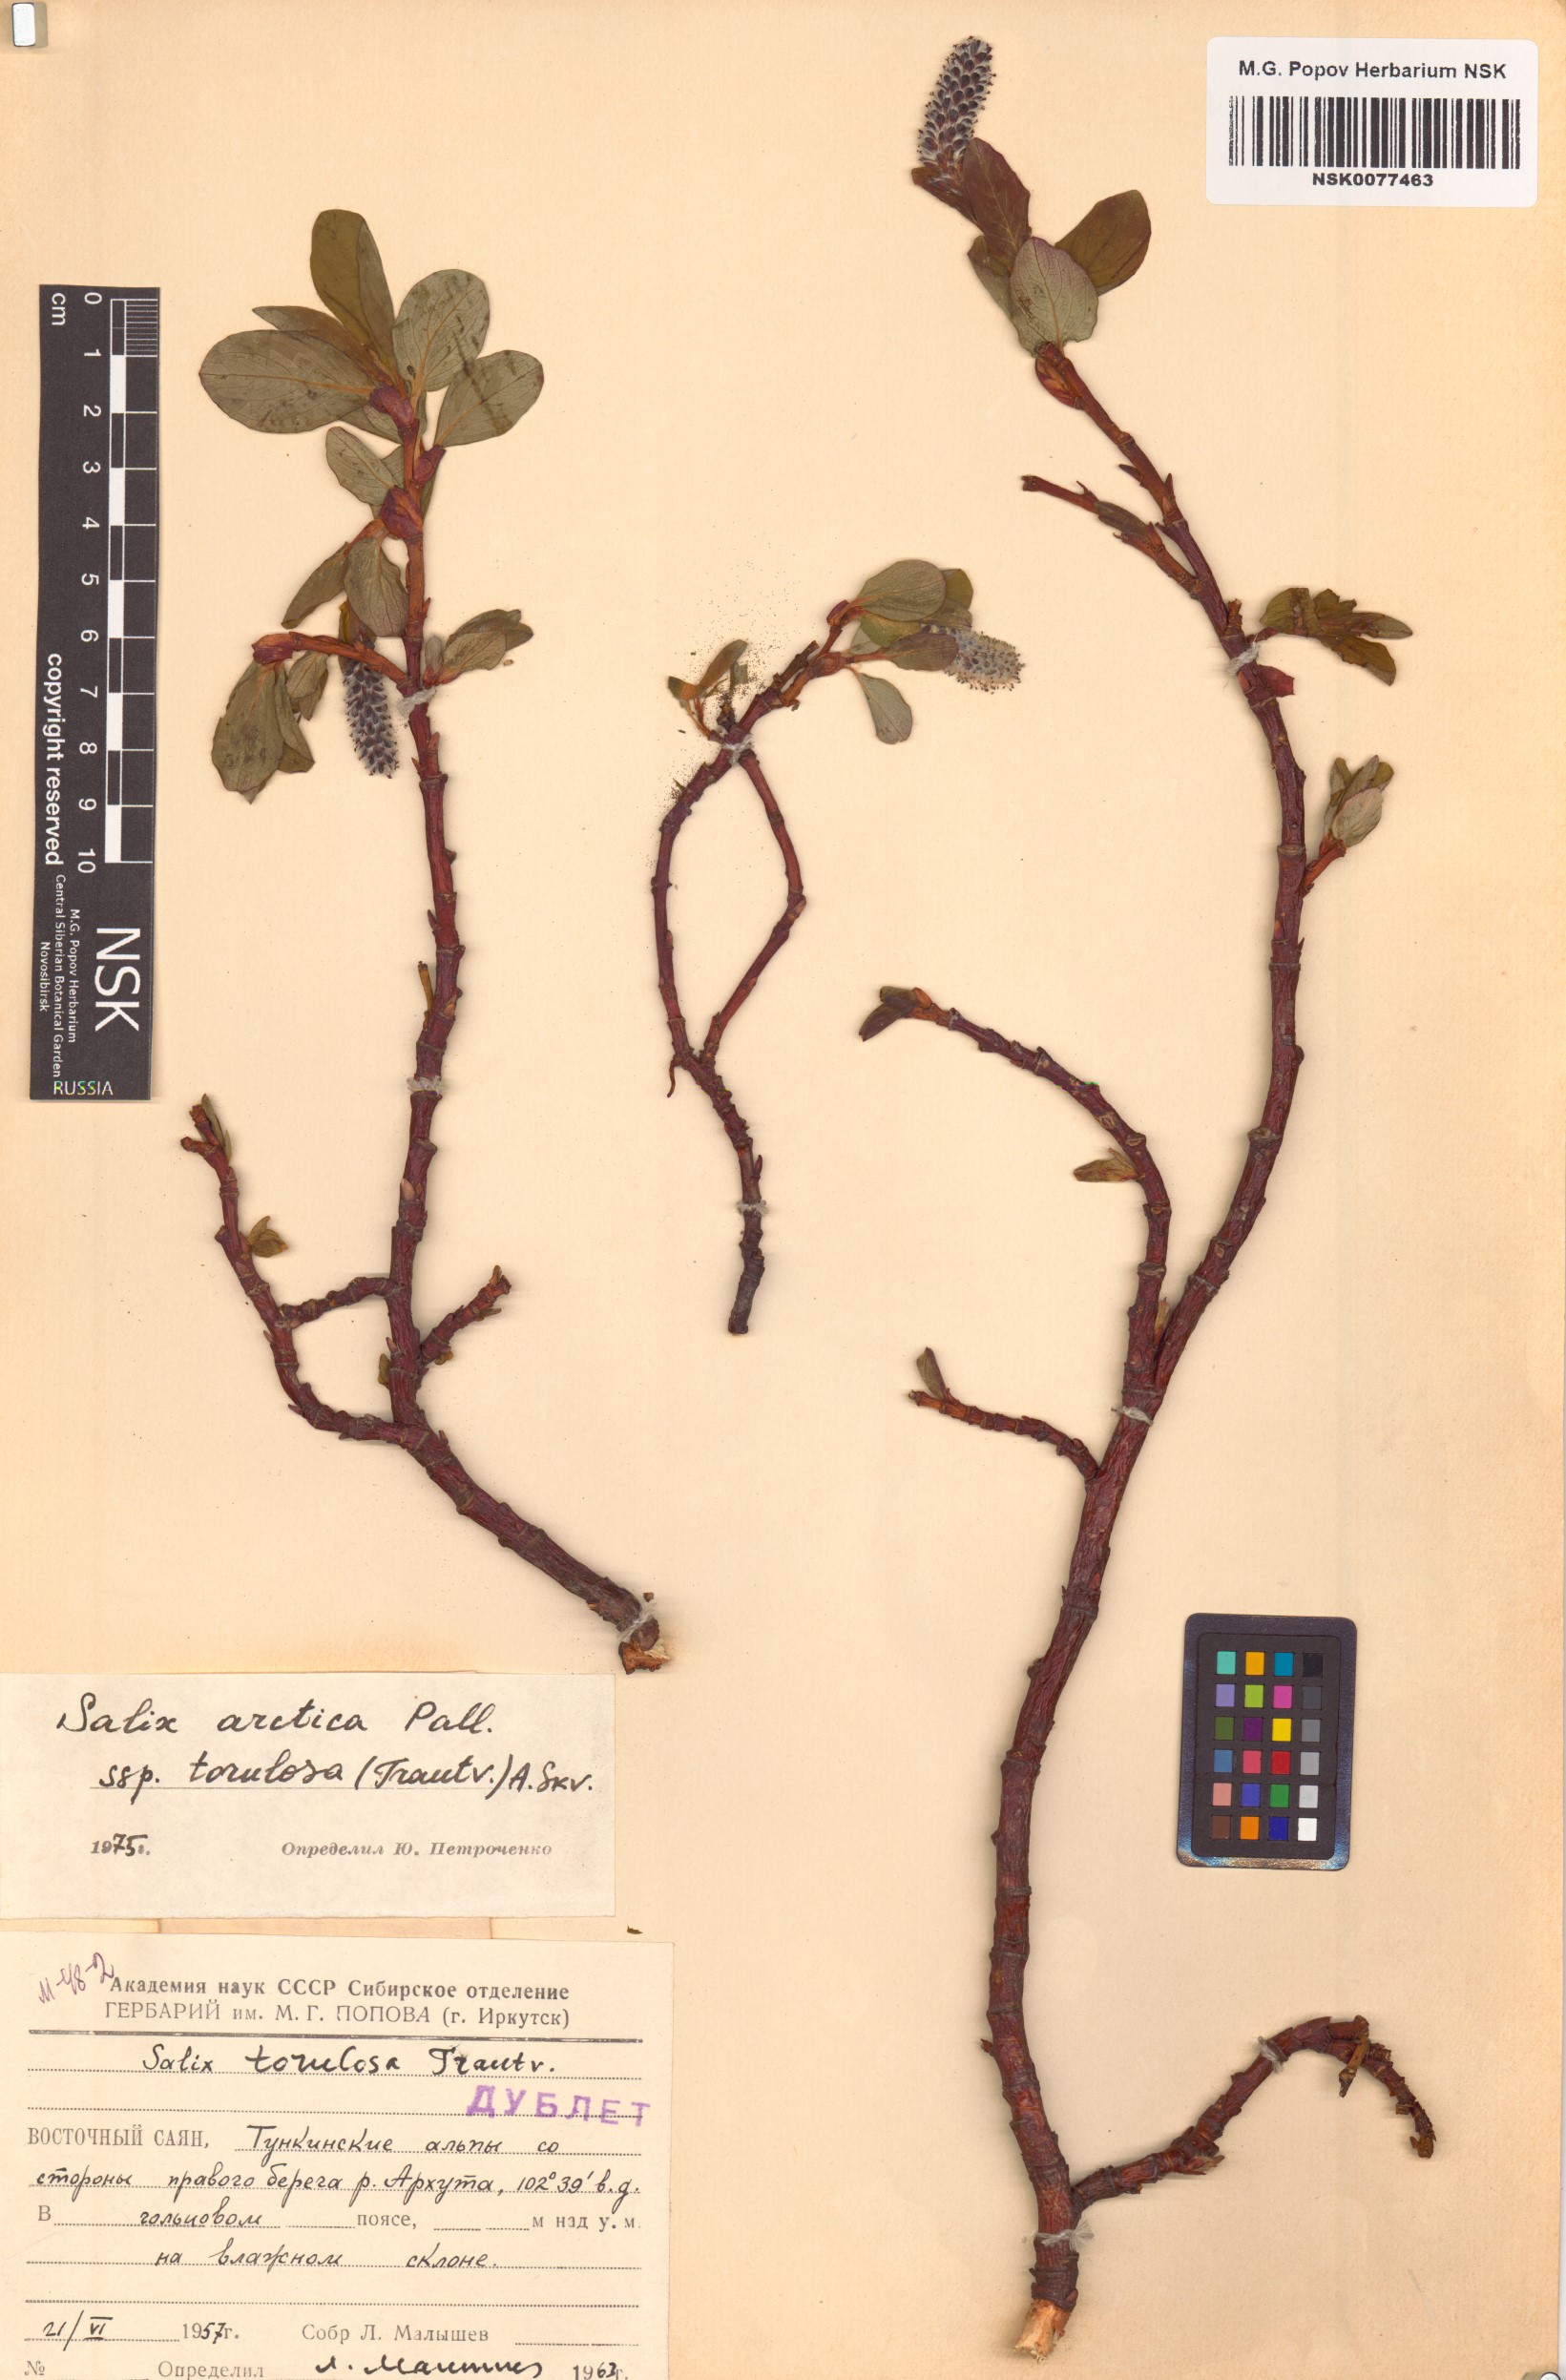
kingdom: Plantae
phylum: Tracheophyta
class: Magnoliopsida
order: Malpighiales
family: Salicaceae
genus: Salix
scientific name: Salix arctica
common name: Arctic willow
